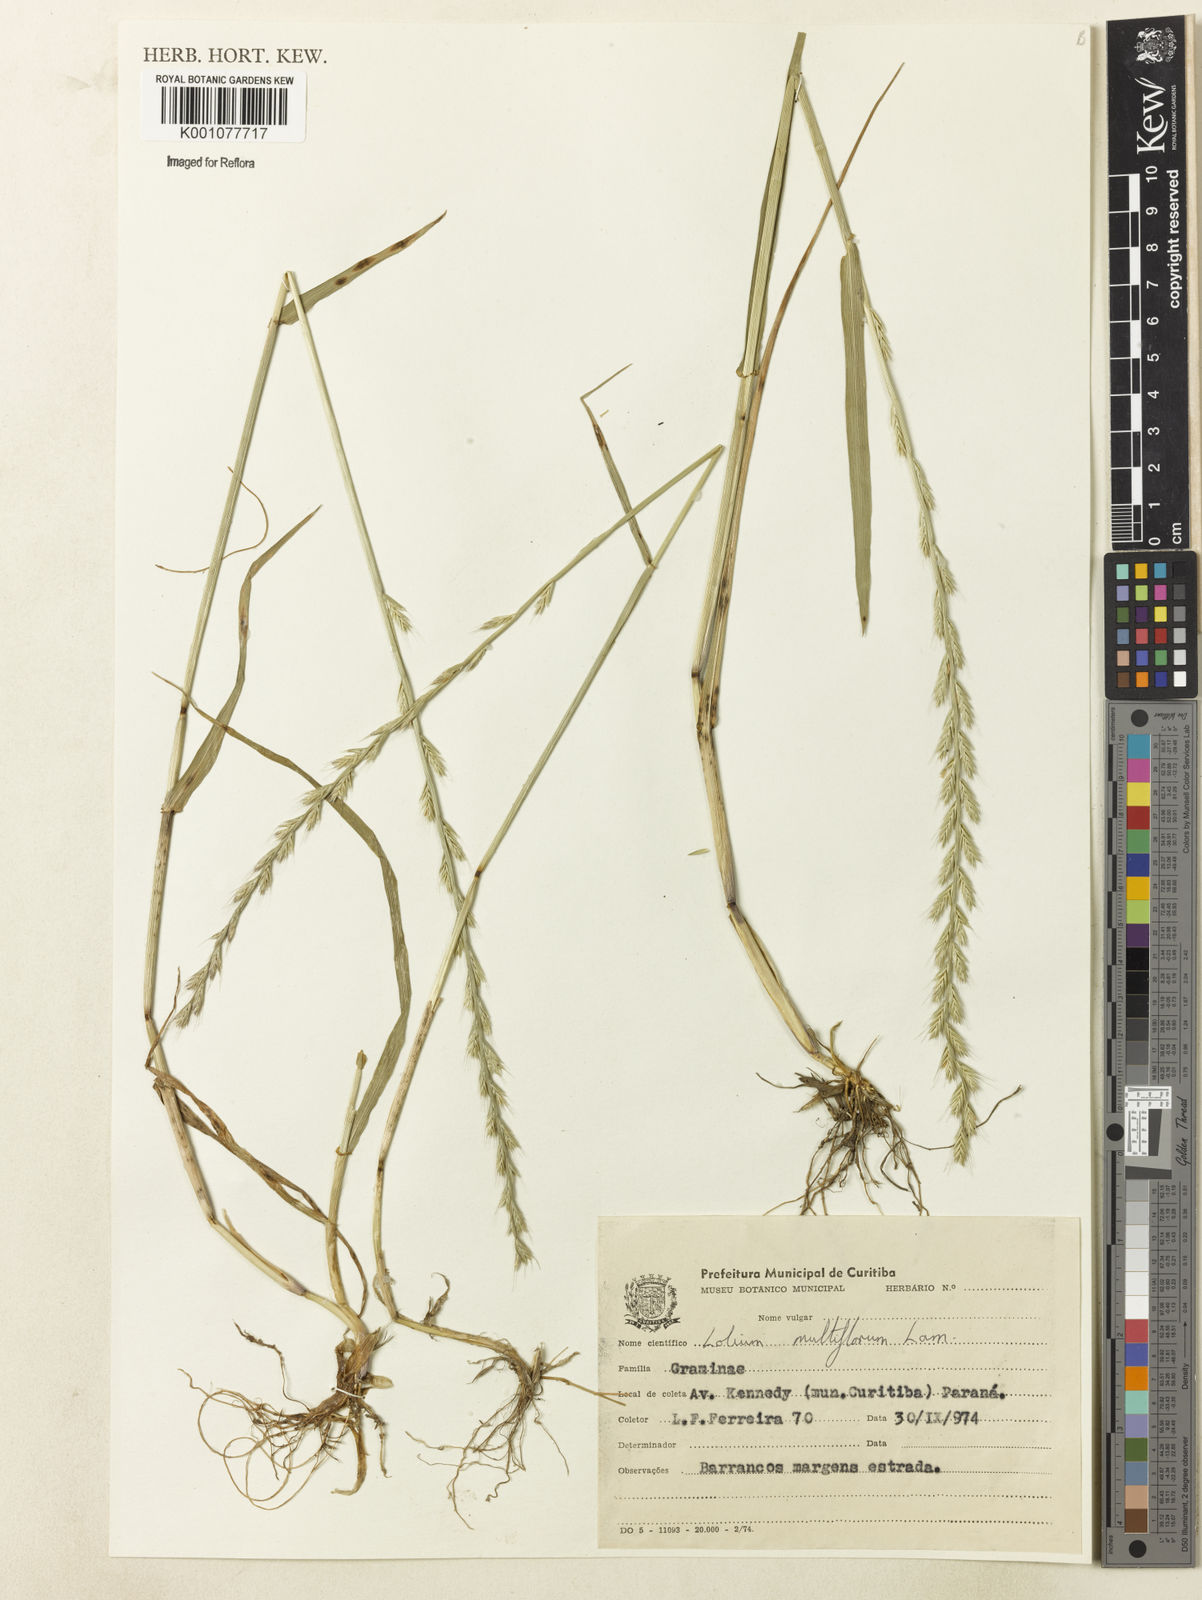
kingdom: Plantae
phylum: Tracheophyta
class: Liliopsida
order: Poales
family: Poaceae
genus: Lolium
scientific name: Lolium multiflorum
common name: Annual ryegrass
